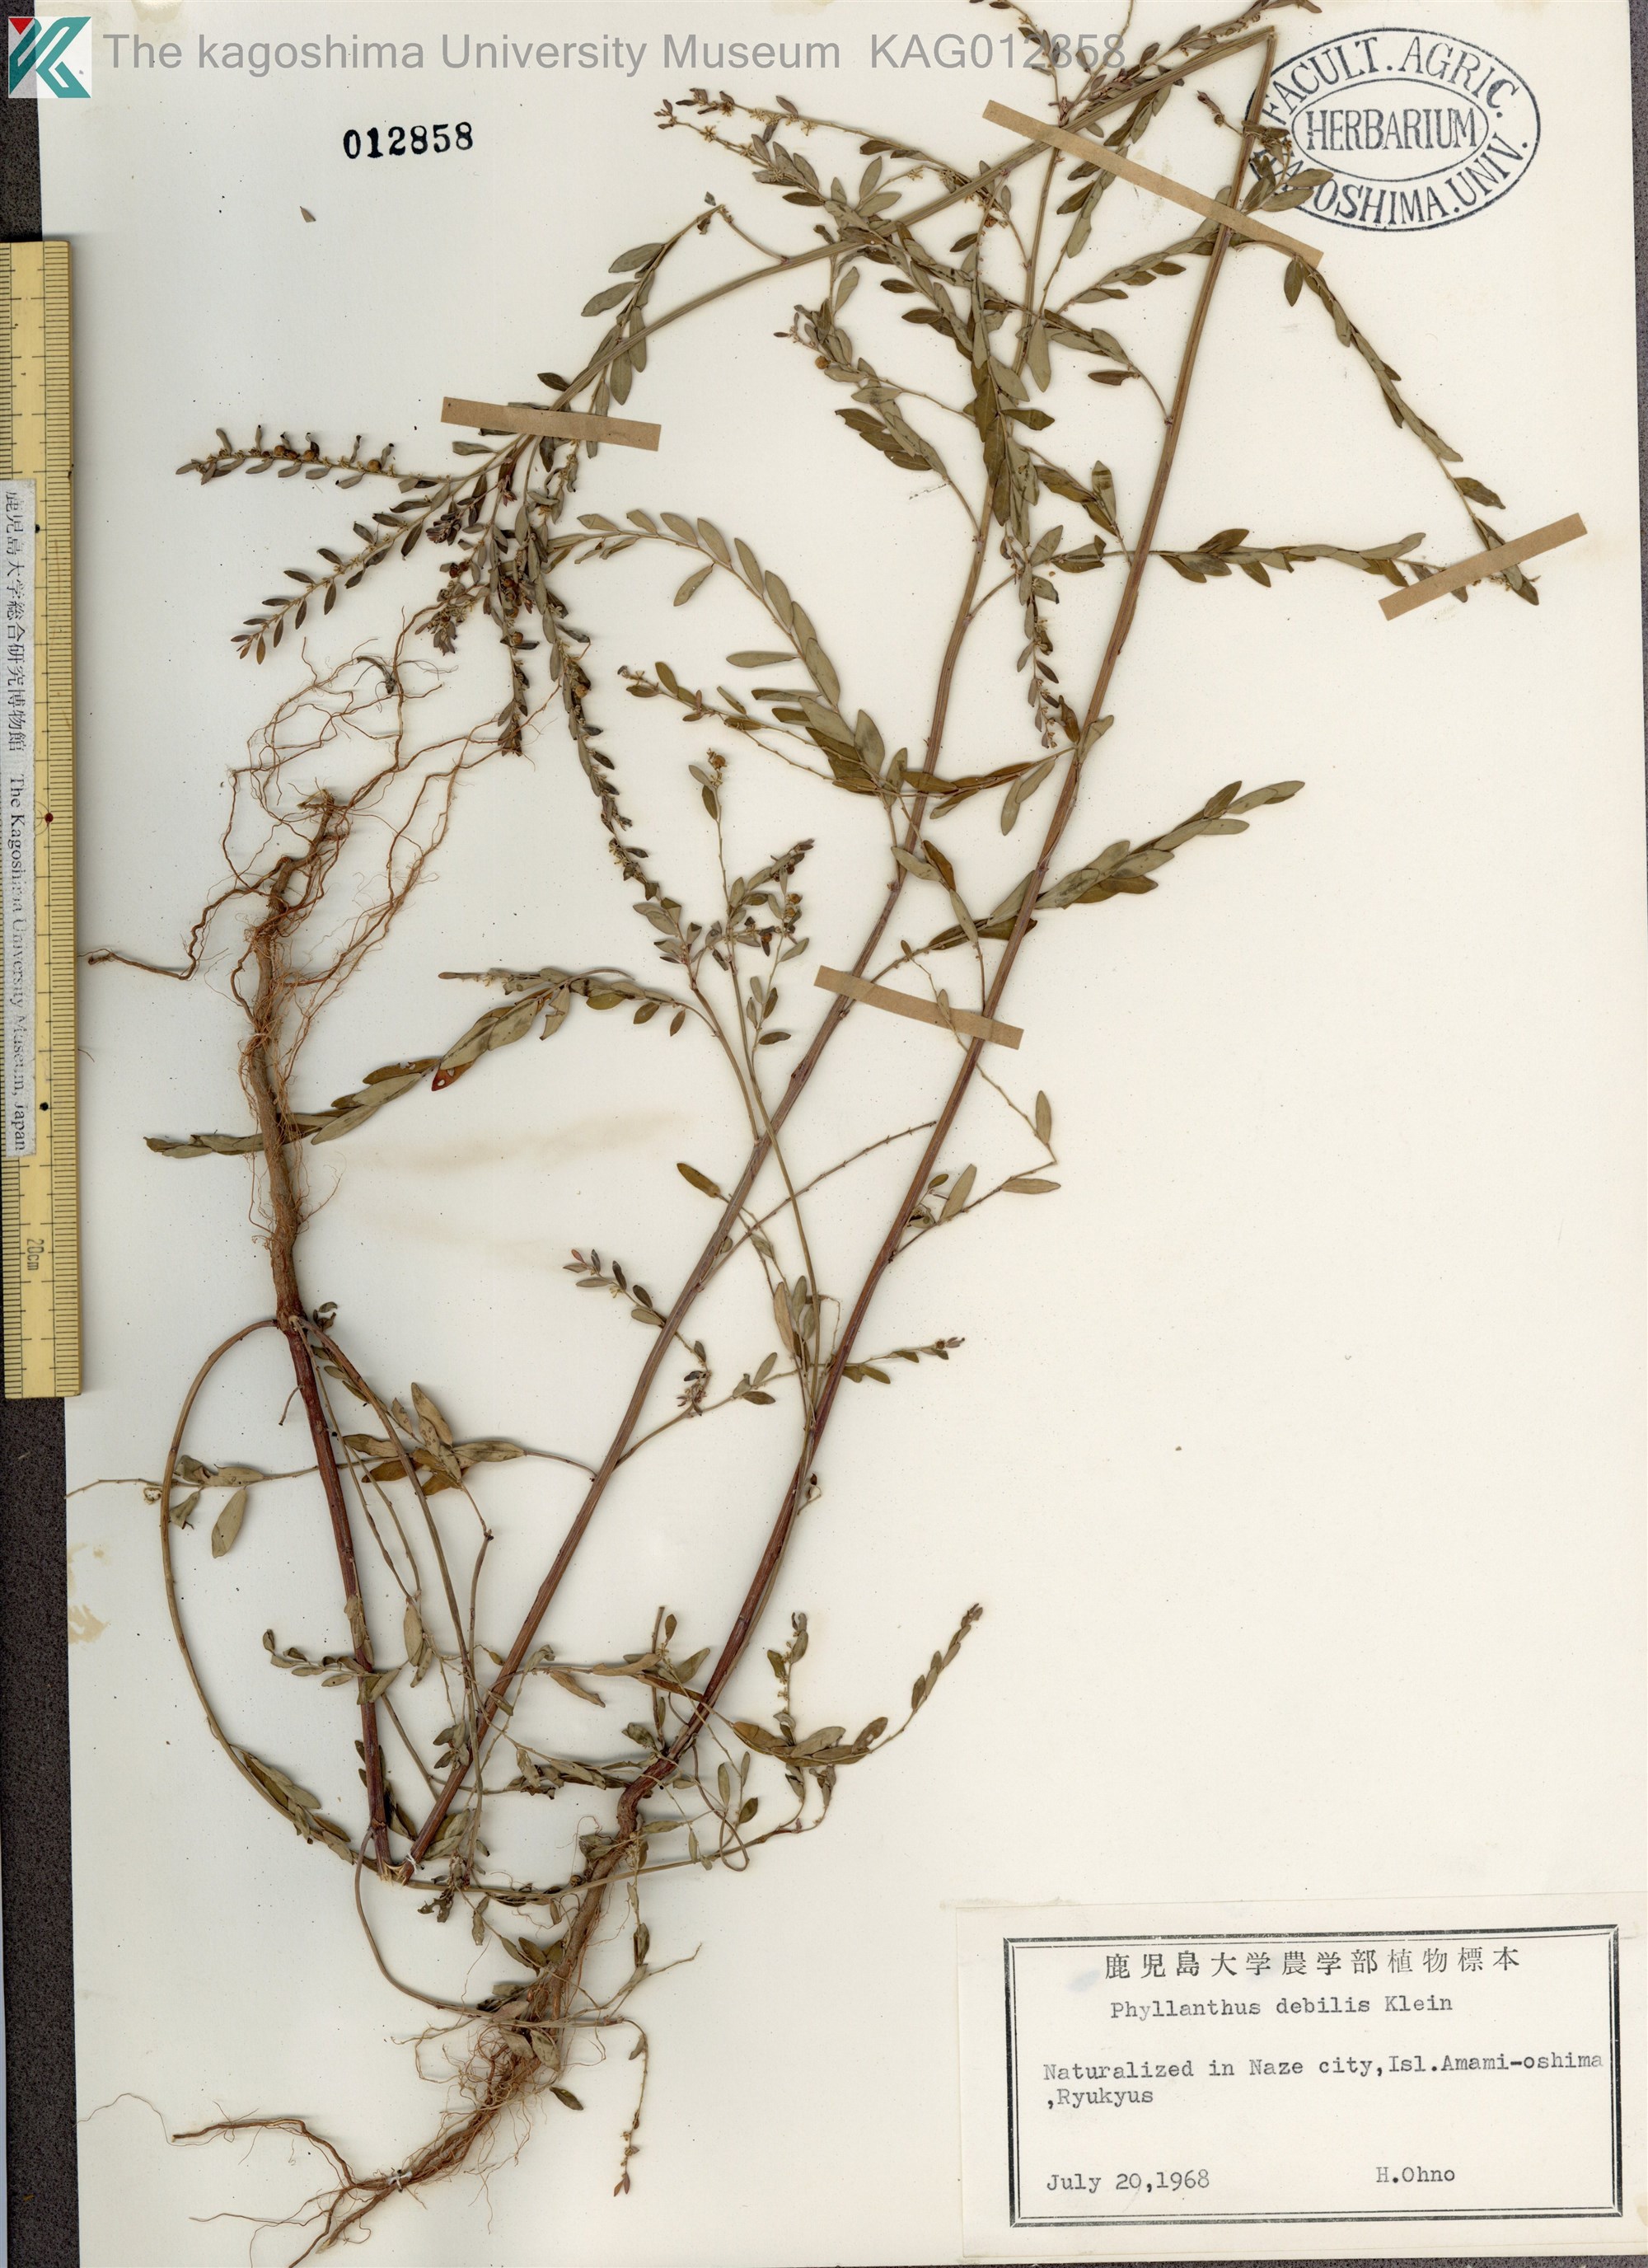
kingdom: Plantae
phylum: Tracheophyta
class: Magnoliopsida
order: Malpighiales
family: Phyllanthaceae
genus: Phyllanthus
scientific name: Phyllanthus debilis
